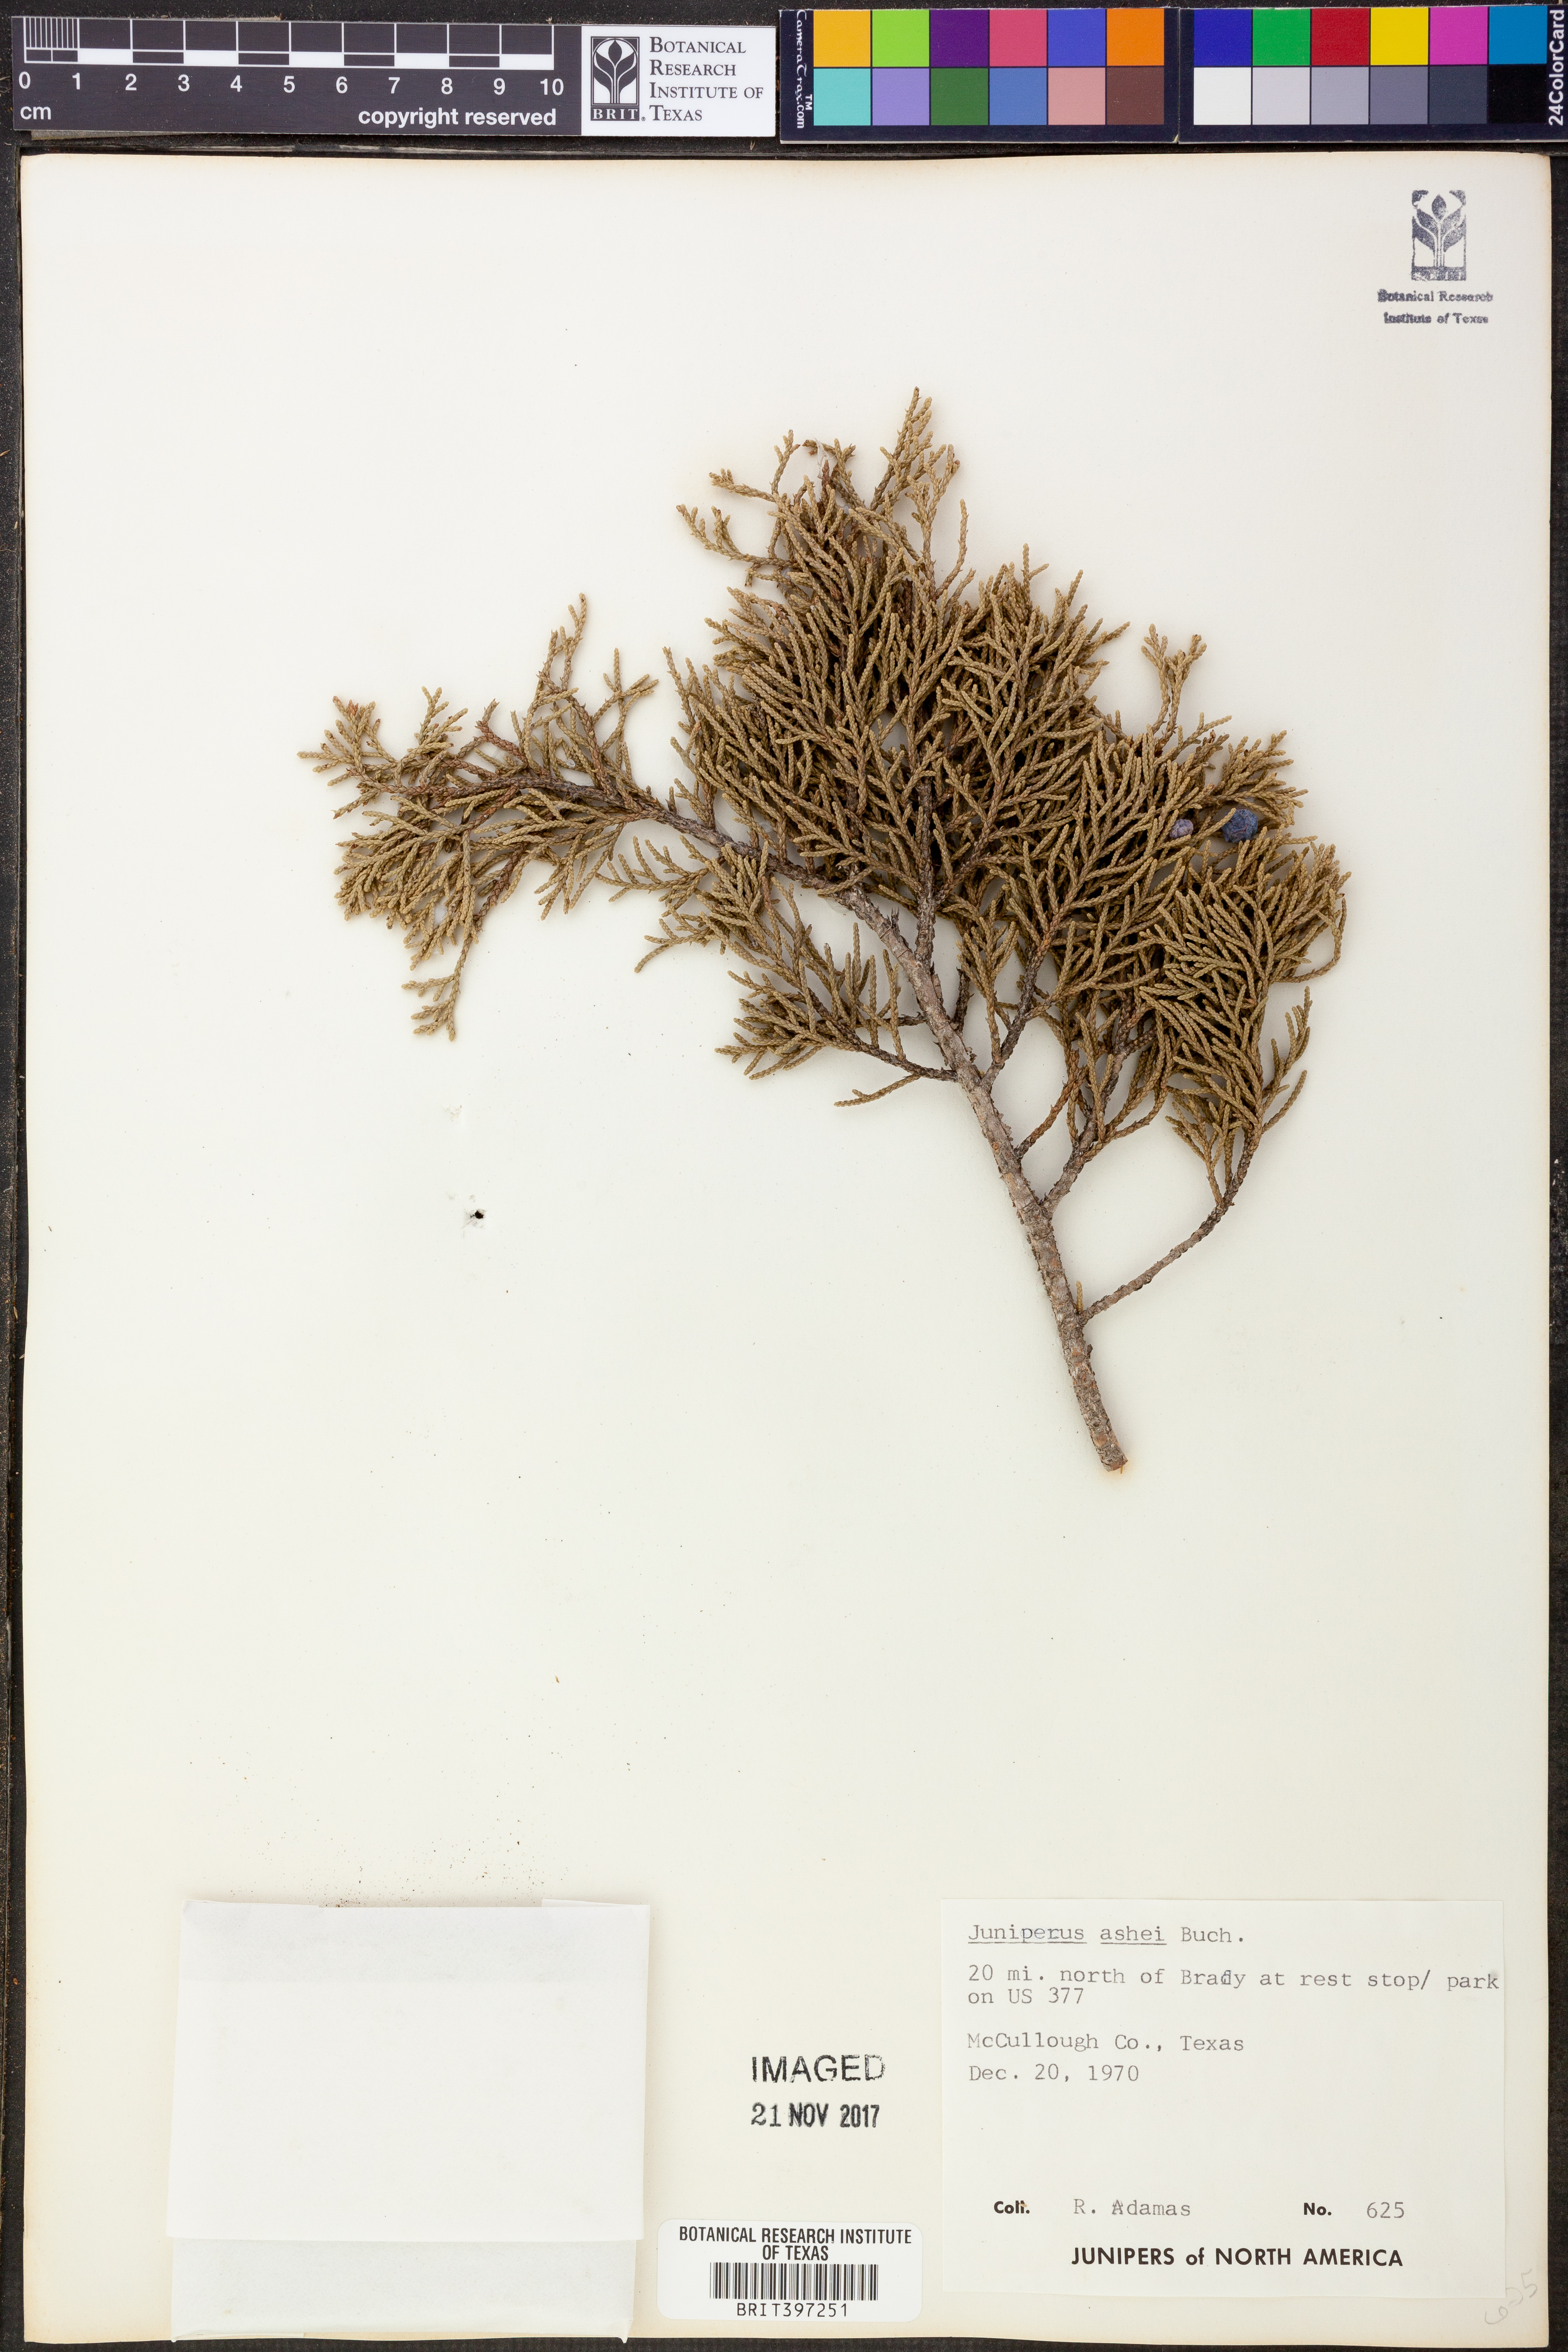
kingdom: Plantae
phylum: Tracheophyta
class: Pinopsida
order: Pinales
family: Cupressaceae
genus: Juniperus
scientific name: Juniperus ashei
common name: Mexican juniper
